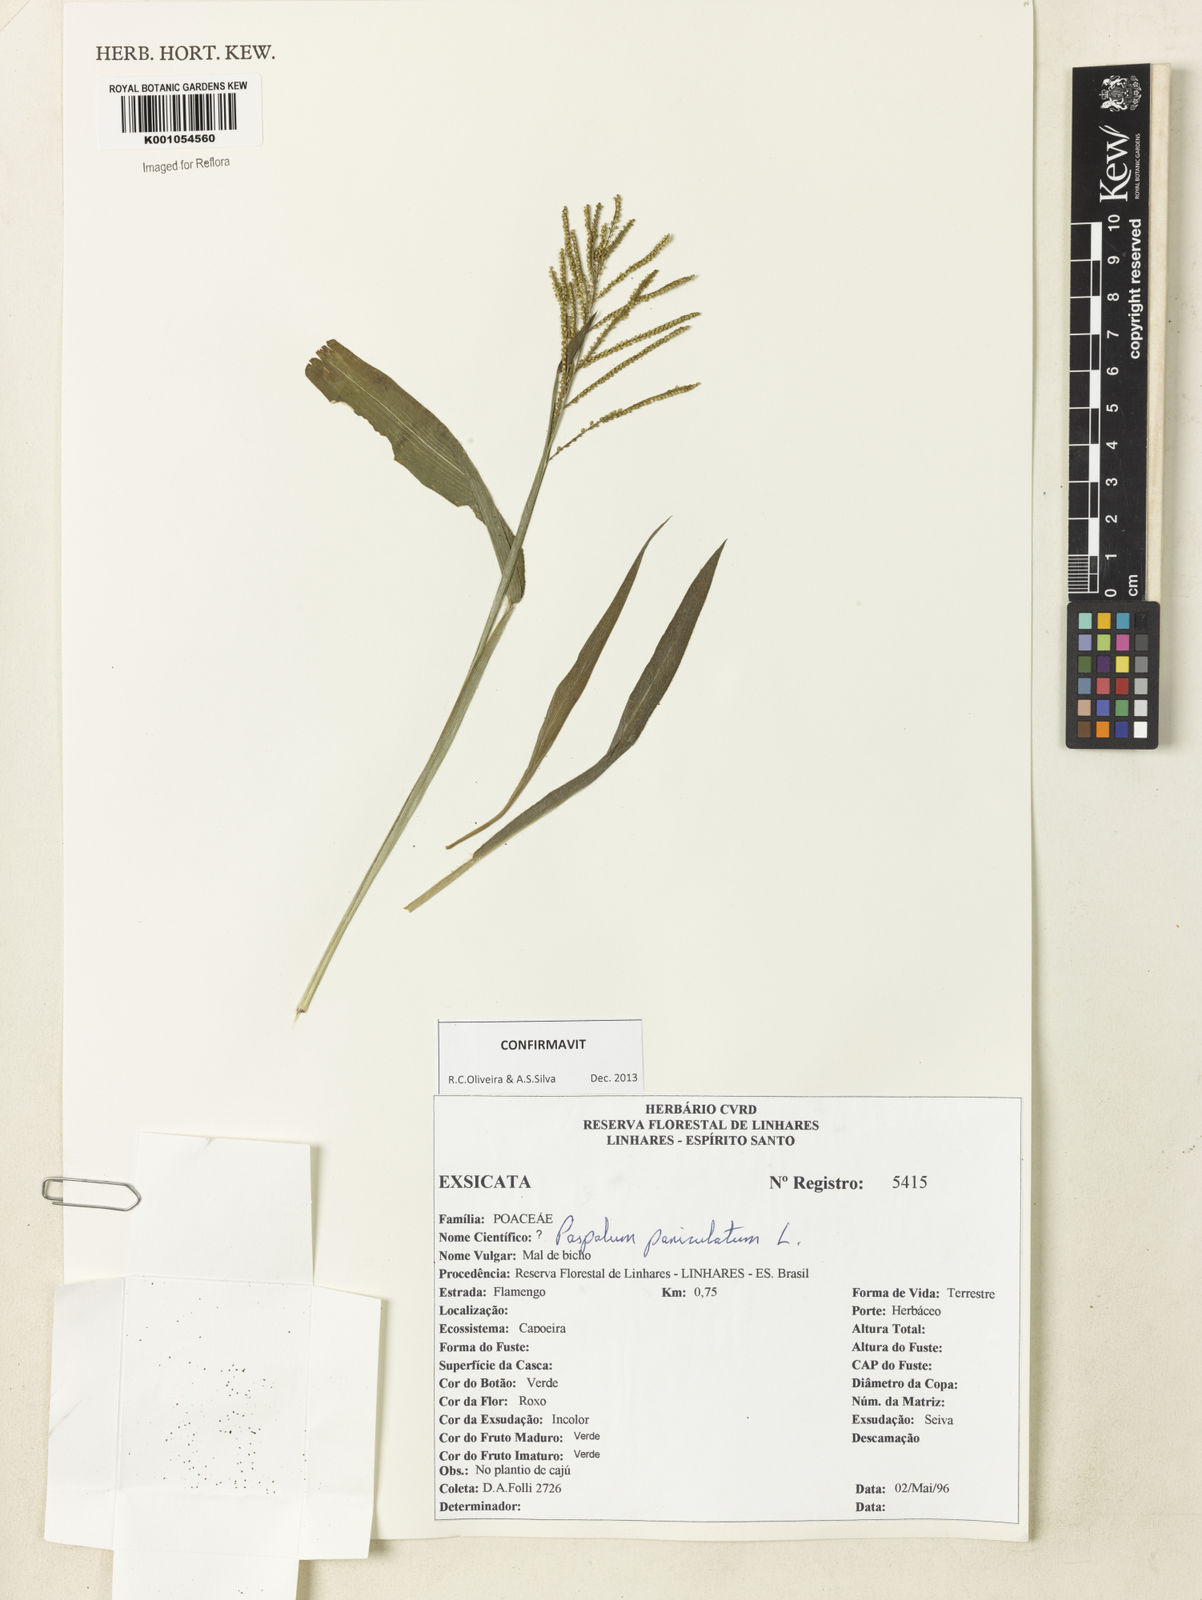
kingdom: Plantae
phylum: Tracheophyta
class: Liliopsida
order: Poales
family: Poaceae
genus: Paspalum
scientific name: Paspalum paniculatum
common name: Arrocillo
